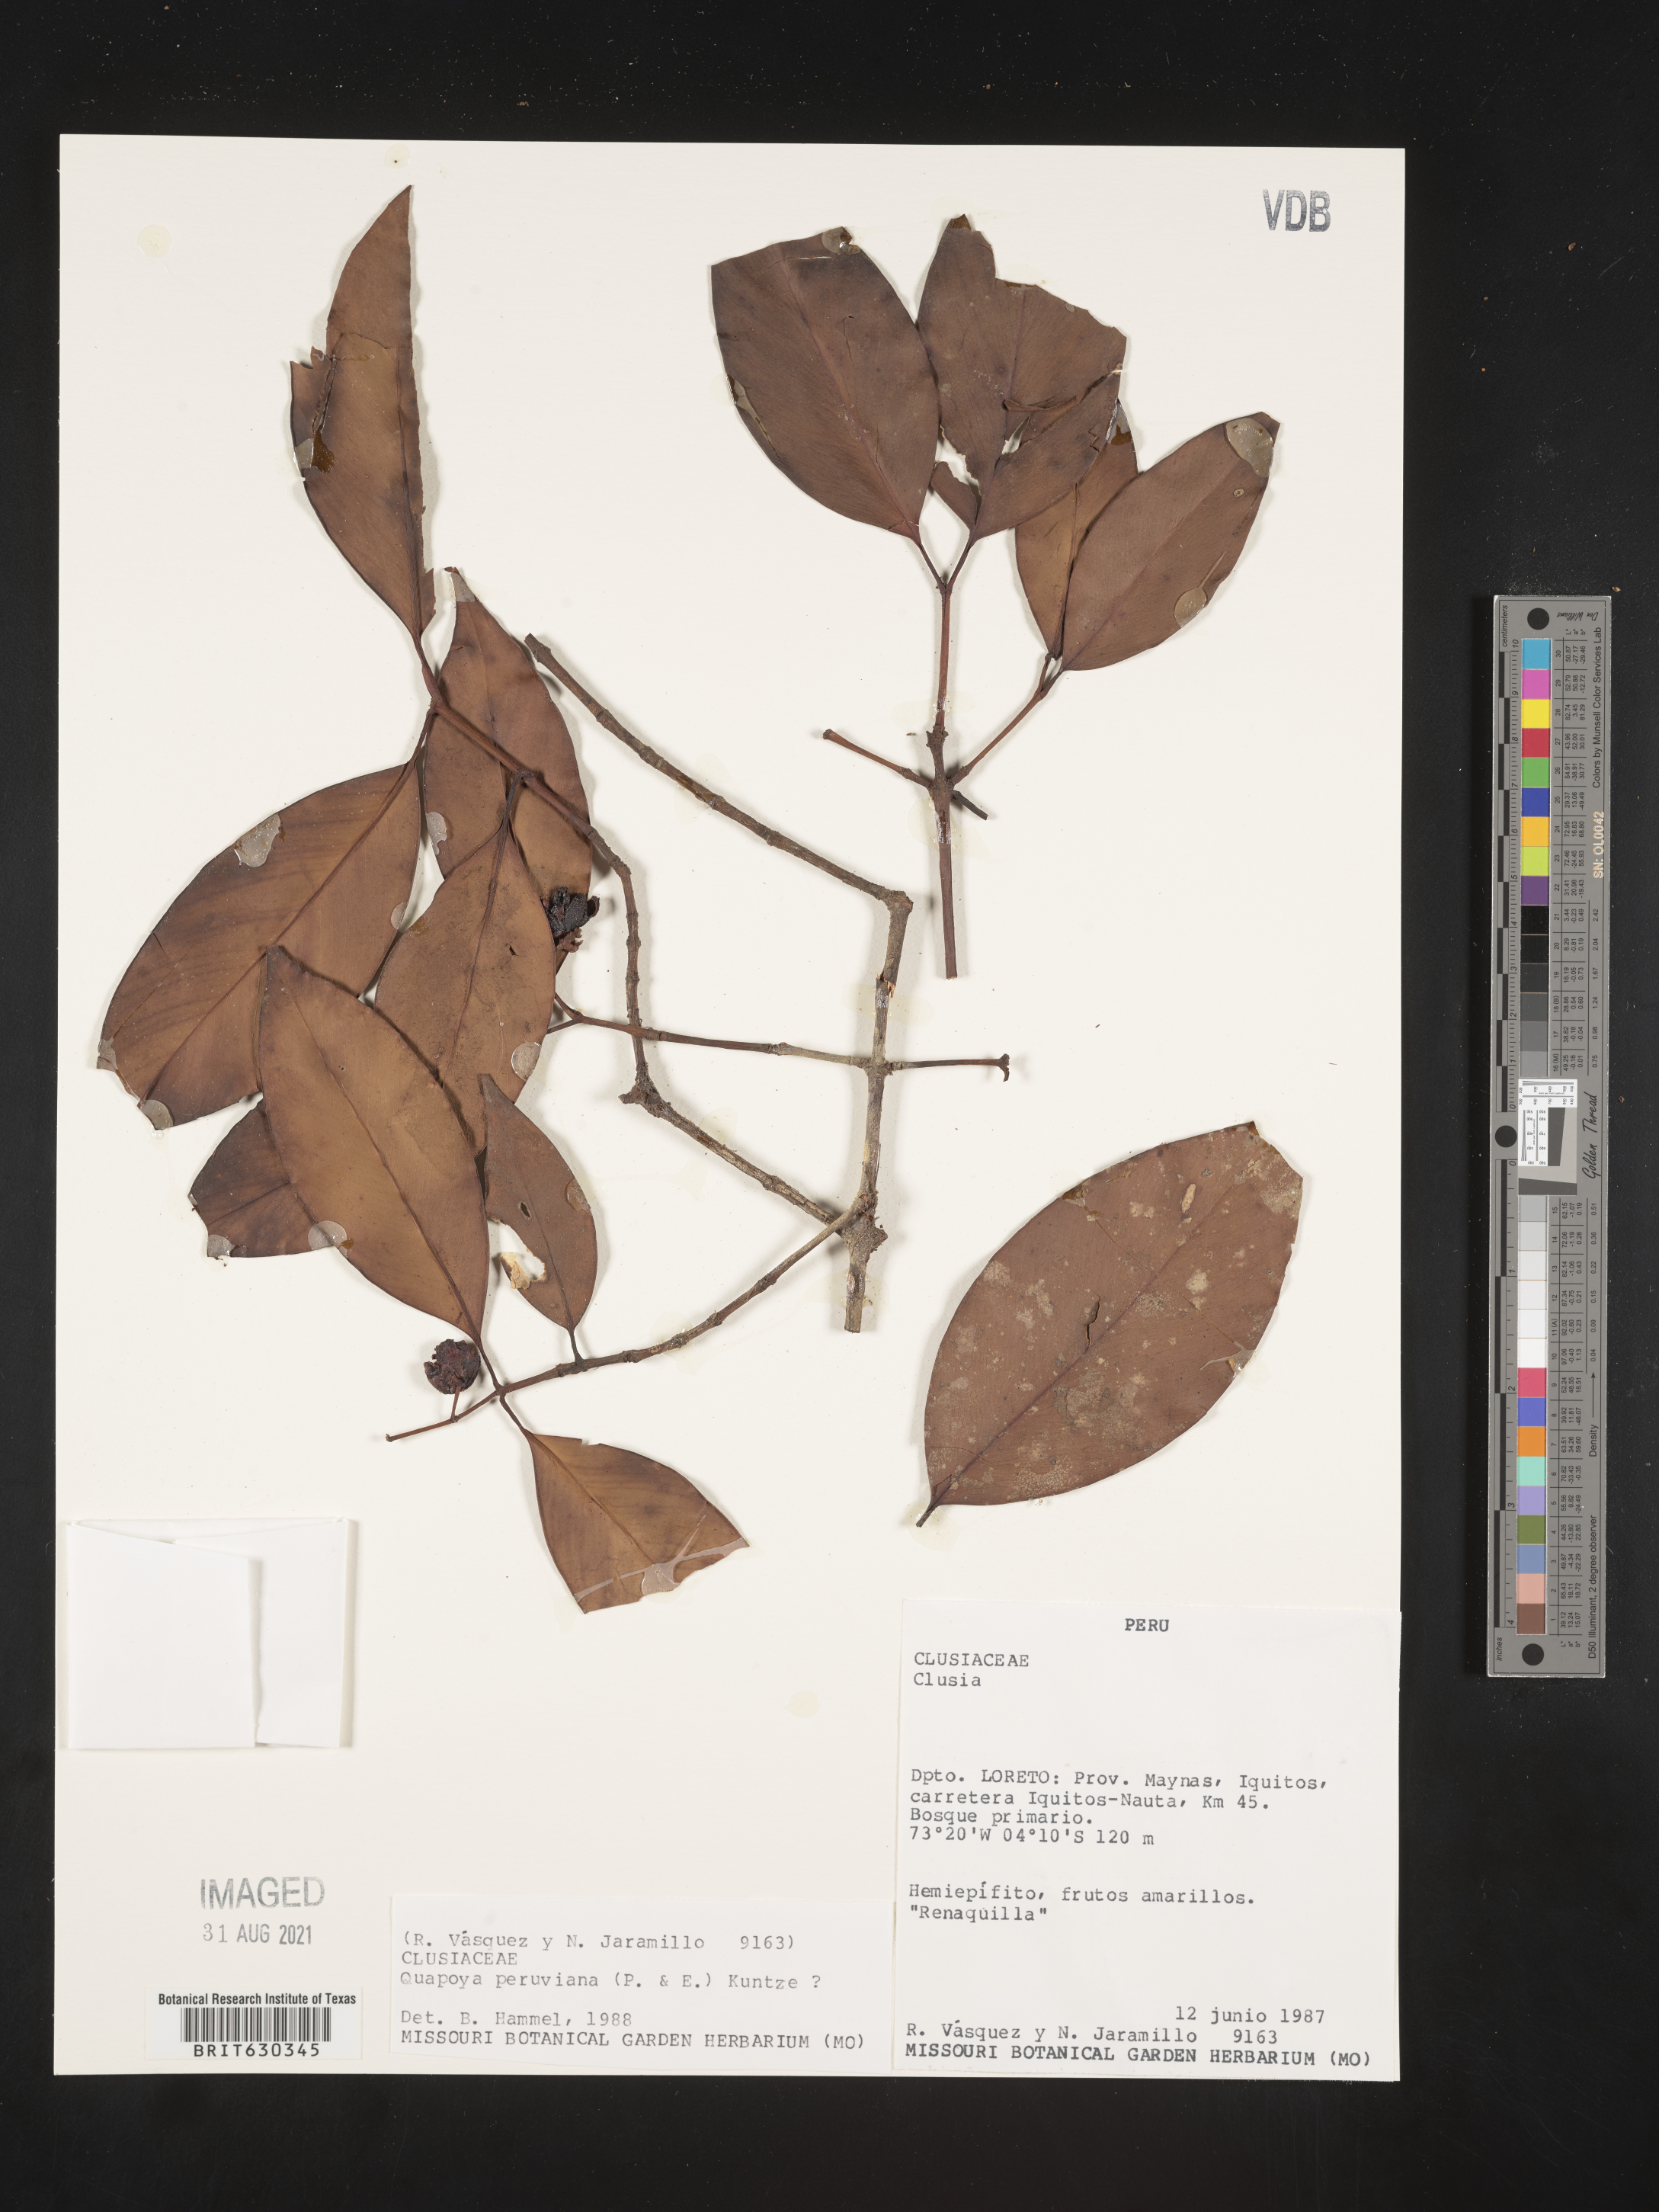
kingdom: Plantae
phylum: Tracheophyta
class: Magnoliopsida
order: Malpighiales
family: Clusiaceae
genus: Clusia
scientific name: Clusia hammeliana
